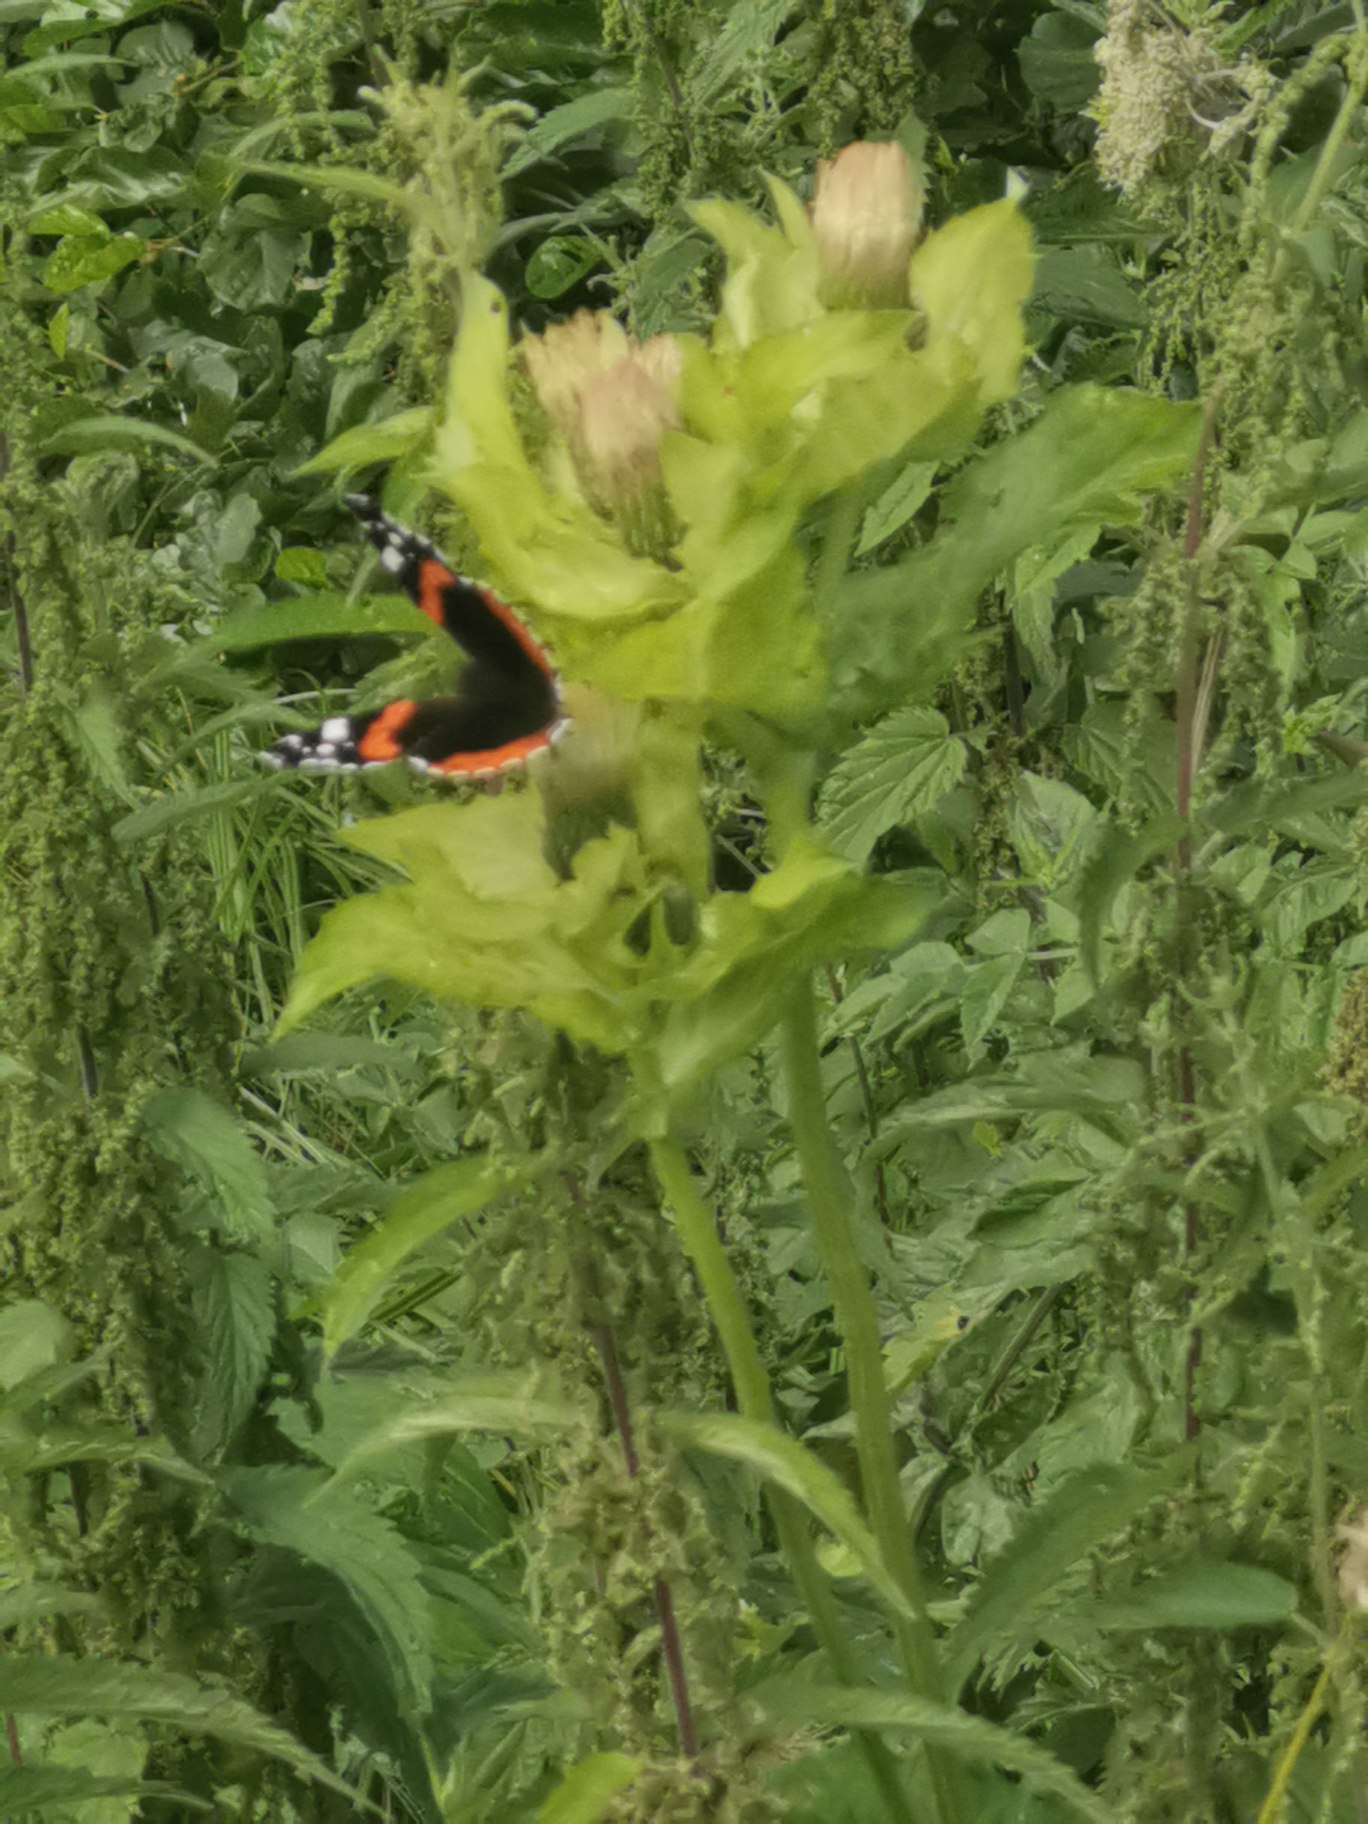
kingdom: Animalia
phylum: Arthropoda
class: Insecta
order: Lepidoptera
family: Nymphalidae
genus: Vanessa
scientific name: Vanessa atalanta
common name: Admiral
